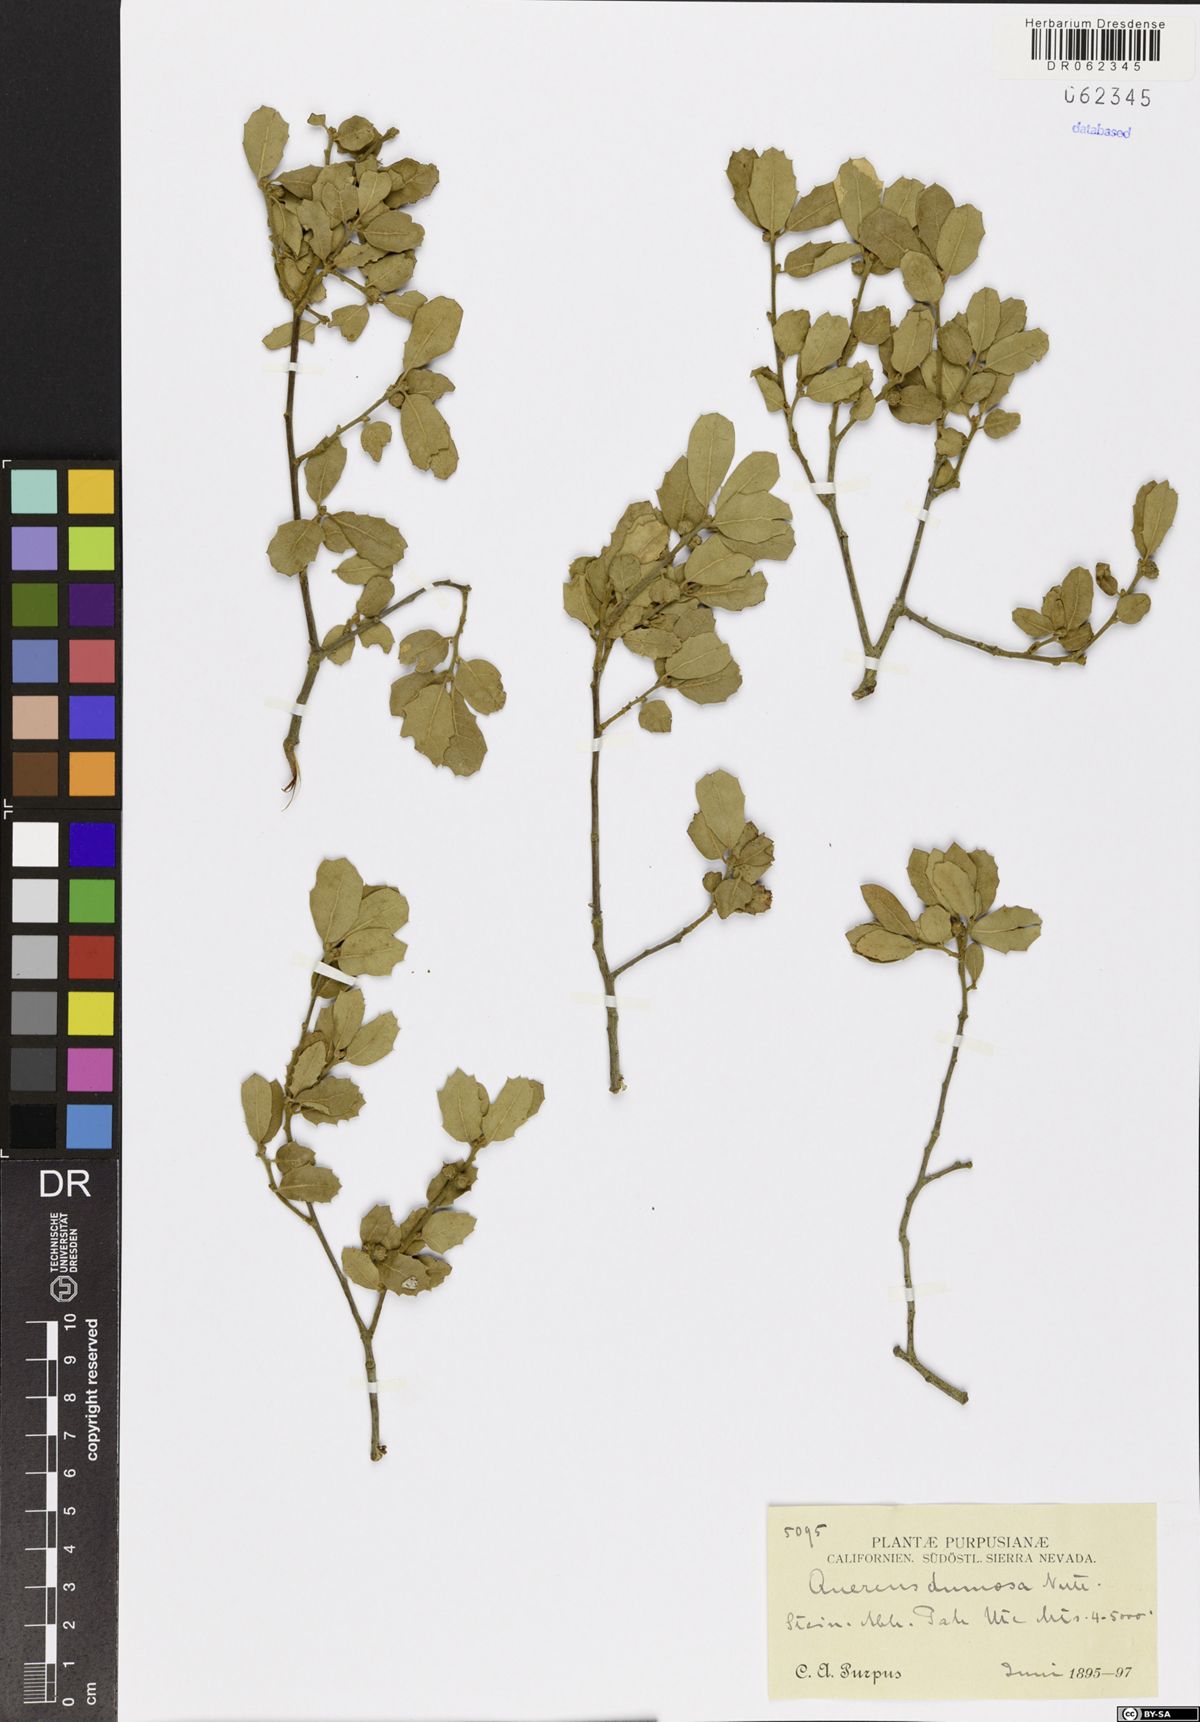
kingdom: Plantae
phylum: Tracheophyta
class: Magnoliopsida
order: Fagales
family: Fagaceae
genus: Quercus
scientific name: Quercus dumosa
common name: Coastal sage scrub oak
